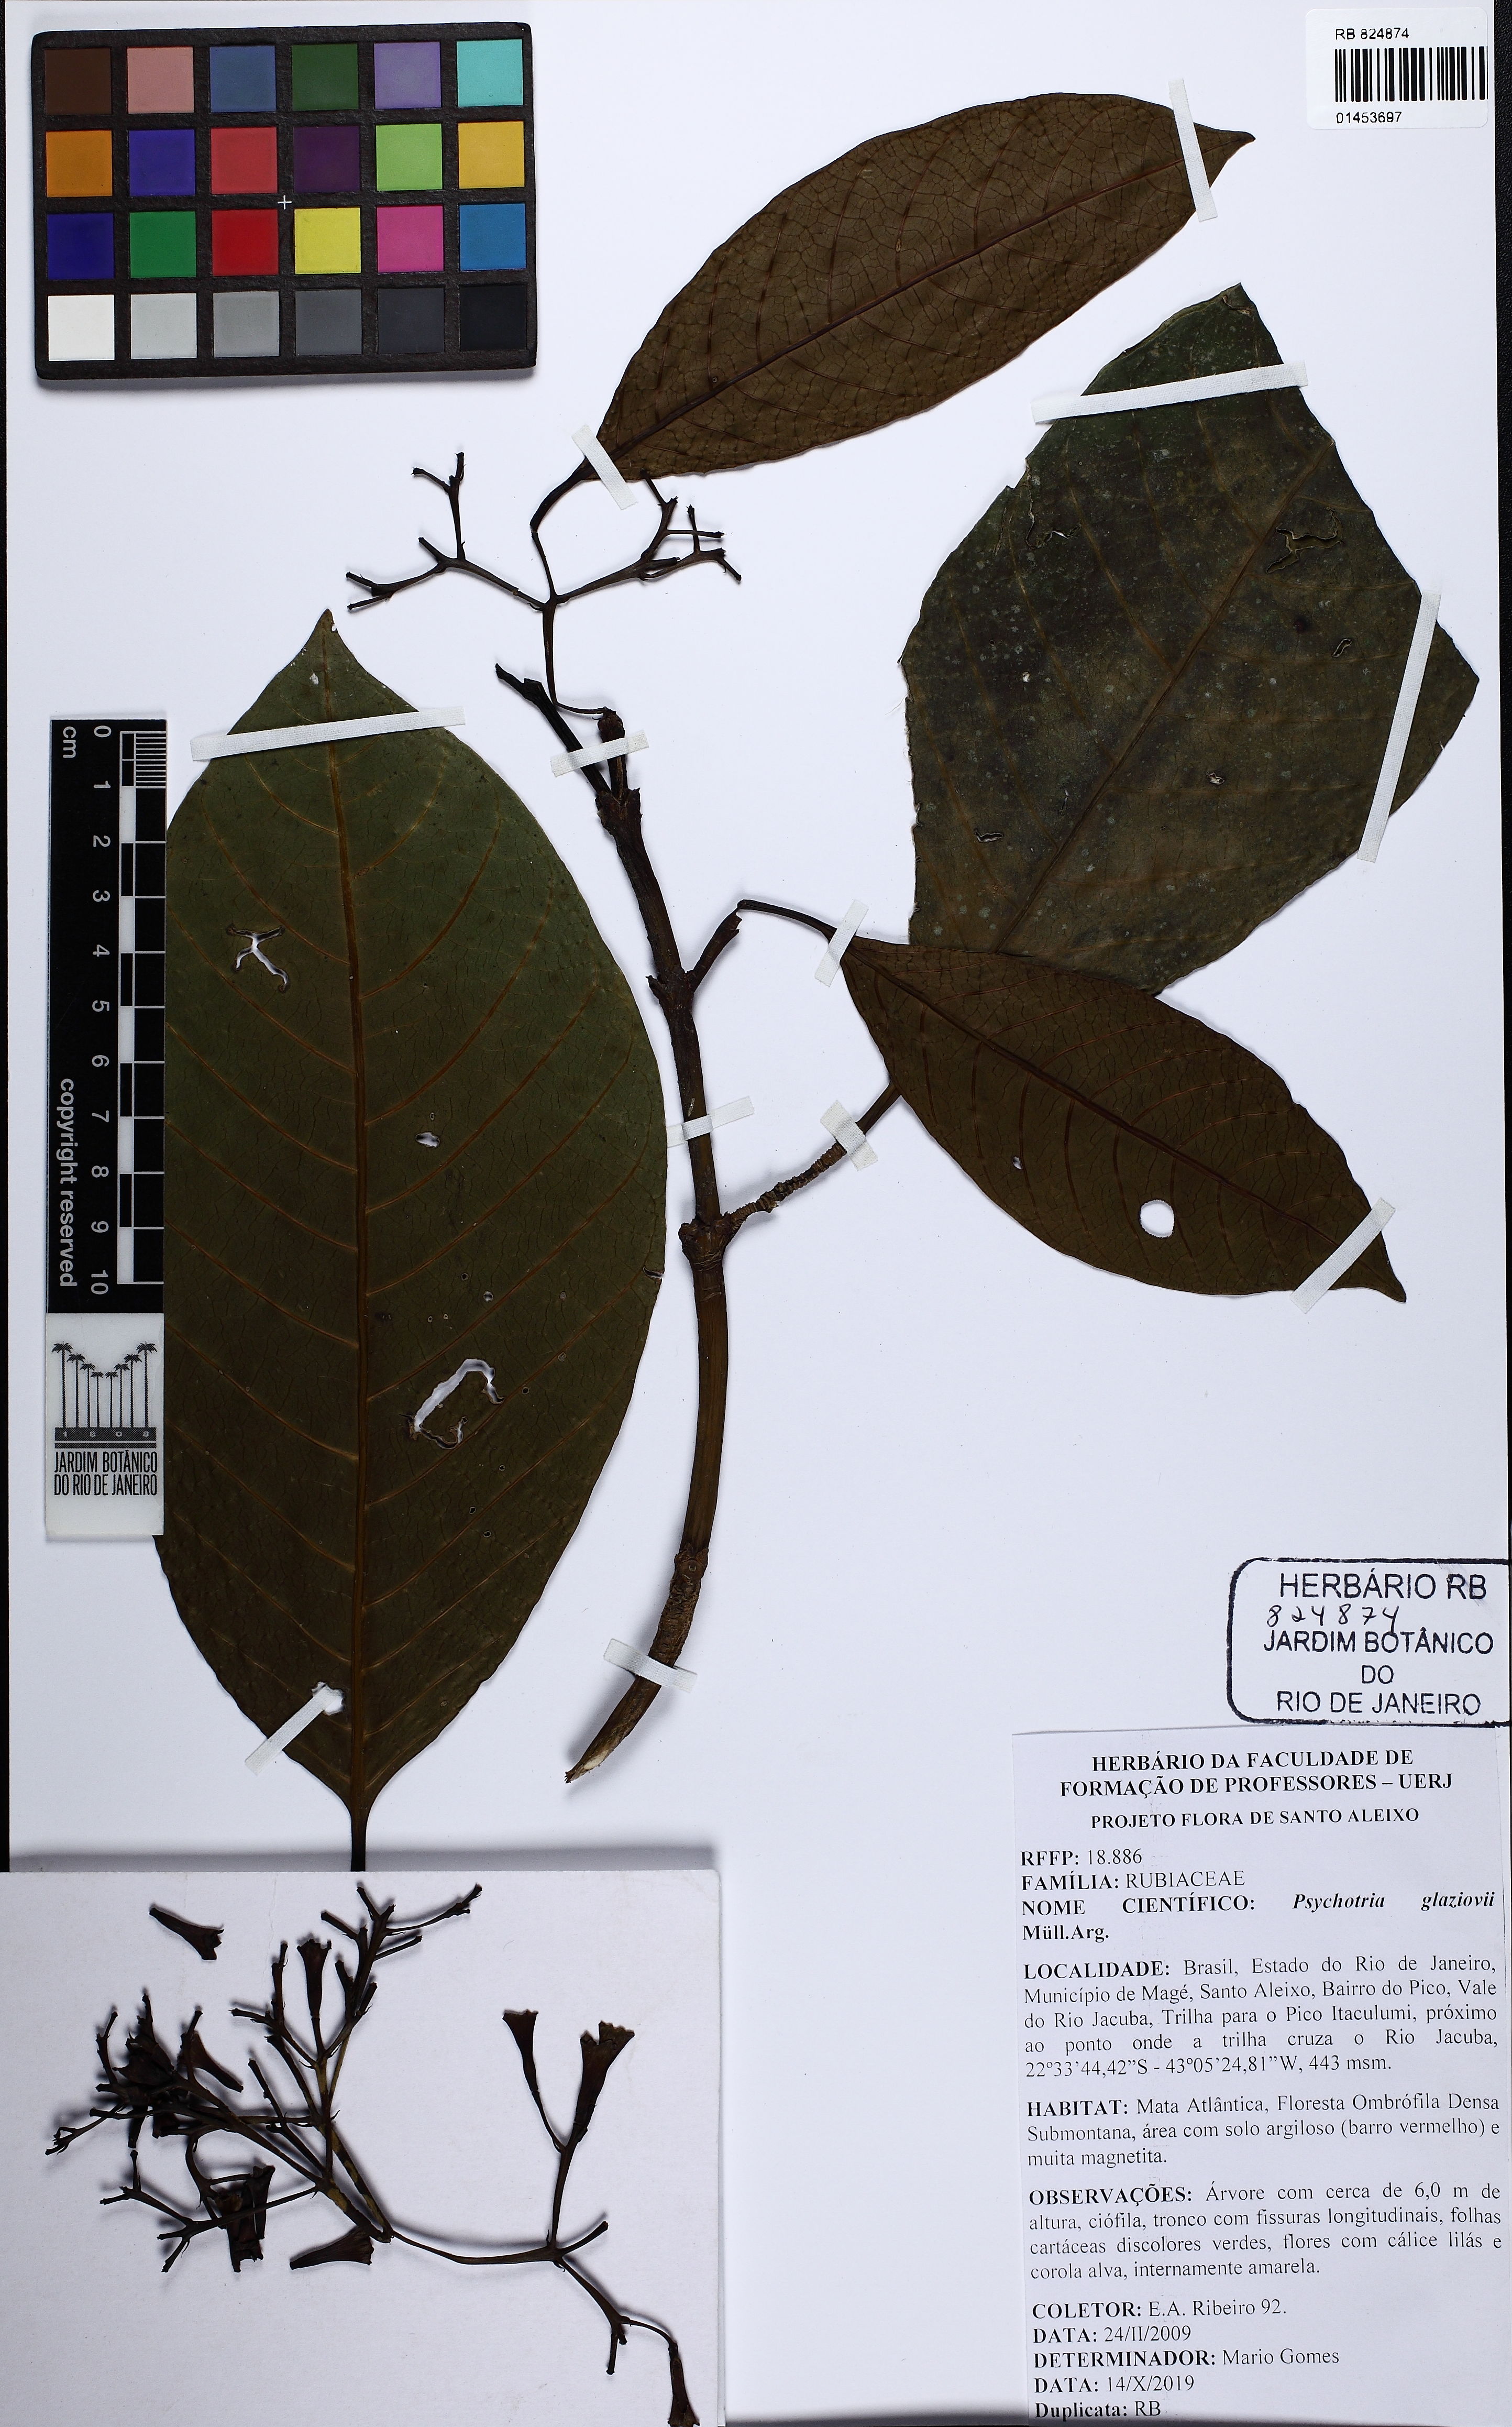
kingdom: Plantae
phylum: Tracheophyta
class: Magnoliopsida
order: Gentianales
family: Rubiaceae
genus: Psychotria
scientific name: Psychotria glaziovii
